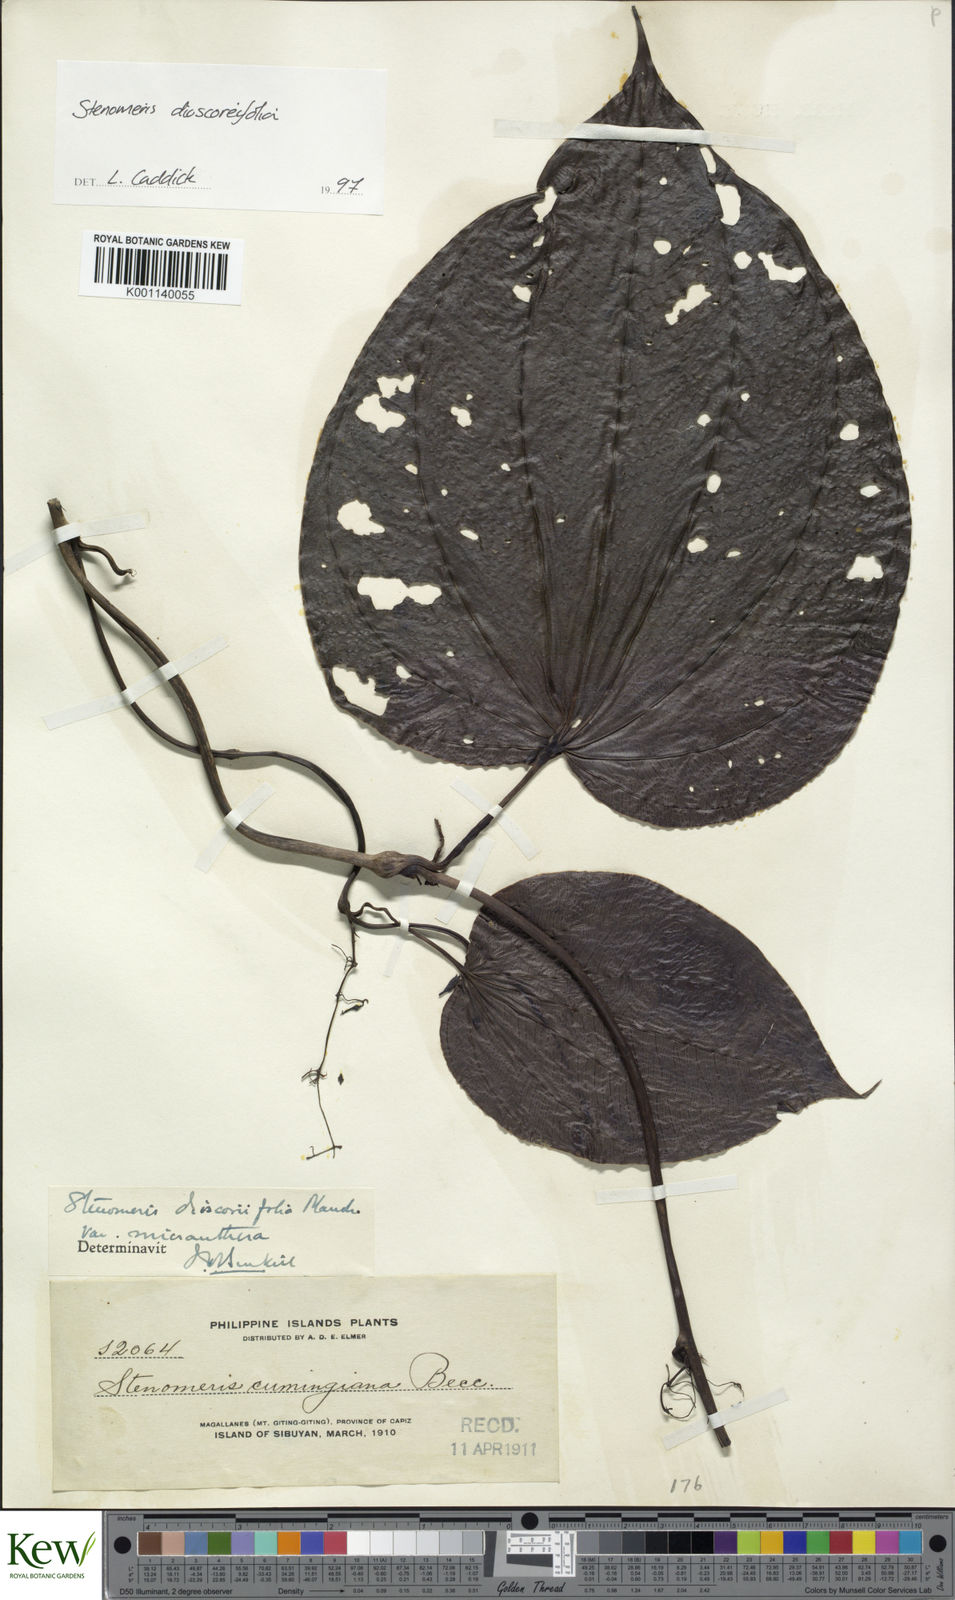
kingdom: Plantae
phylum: Tracheophyta
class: Liliopsida
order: Dioscoreales
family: Dioscoreaceae
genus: Stenomeris
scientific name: Stenomeris dioscoreifolia
